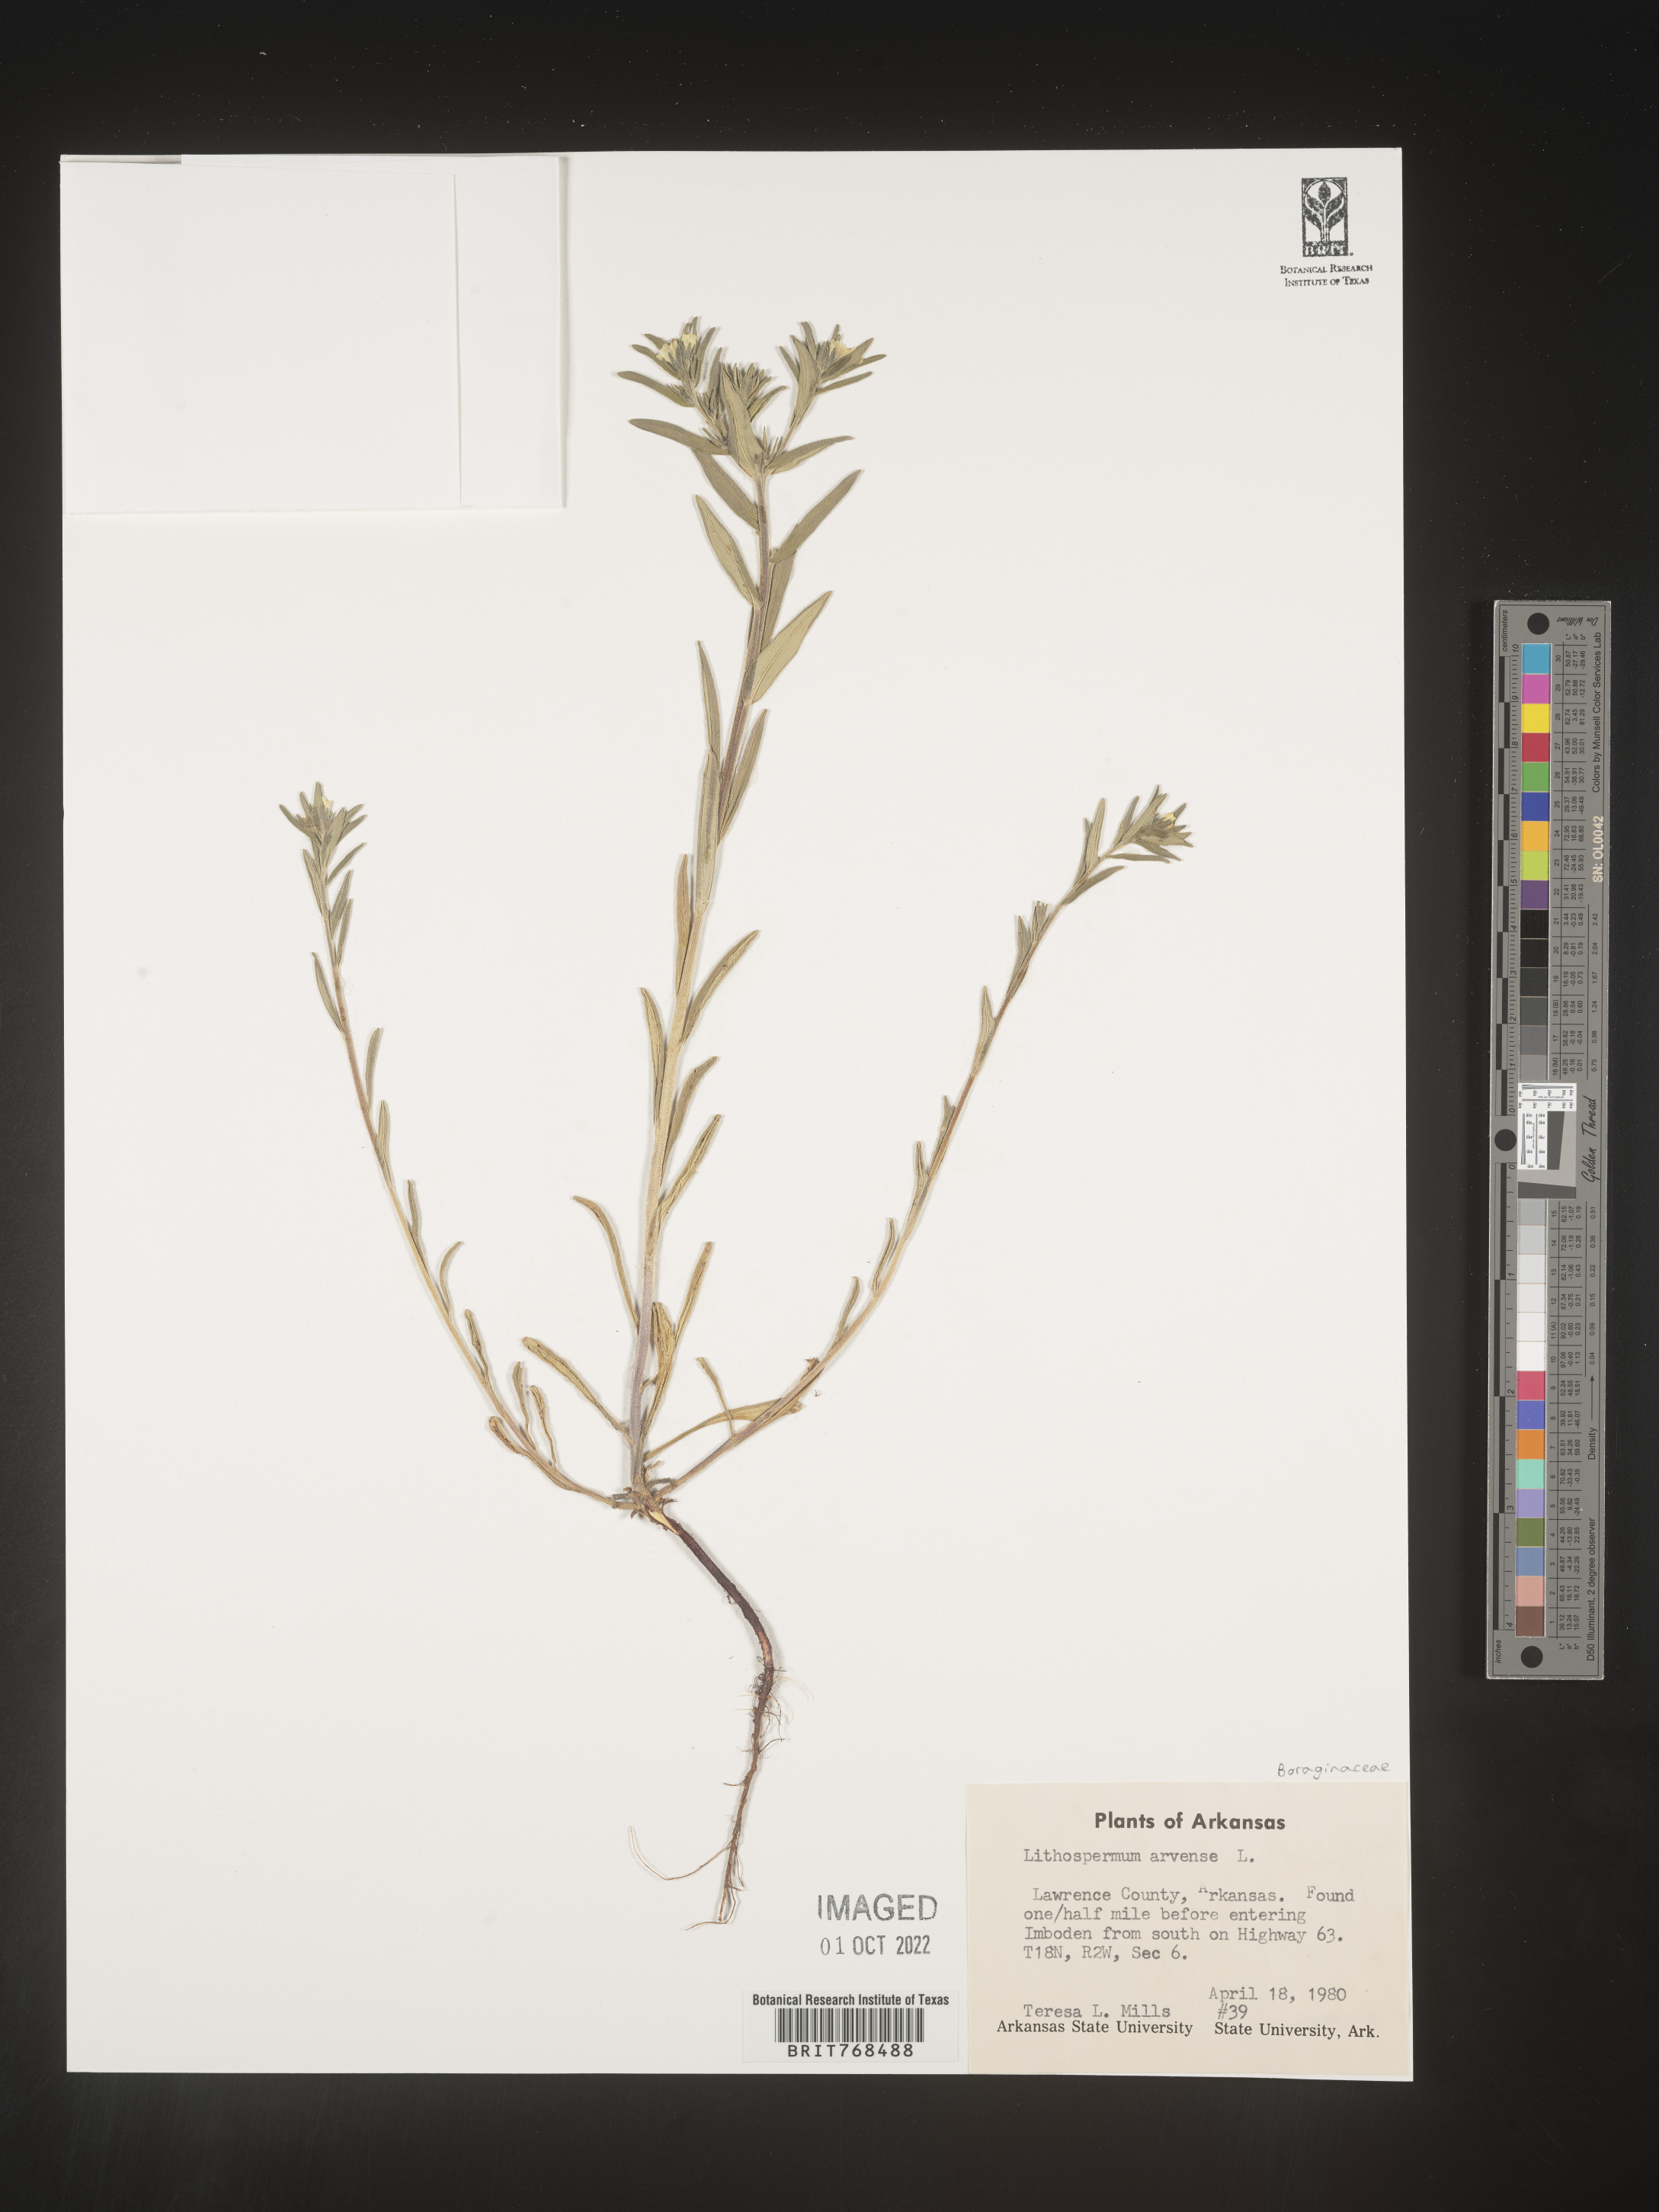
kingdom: Plantae
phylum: Tracheophyta
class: Magnoliopsida
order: Boraginales
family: Boraginaceae
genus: Lithospermum
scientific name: Lithospermum
